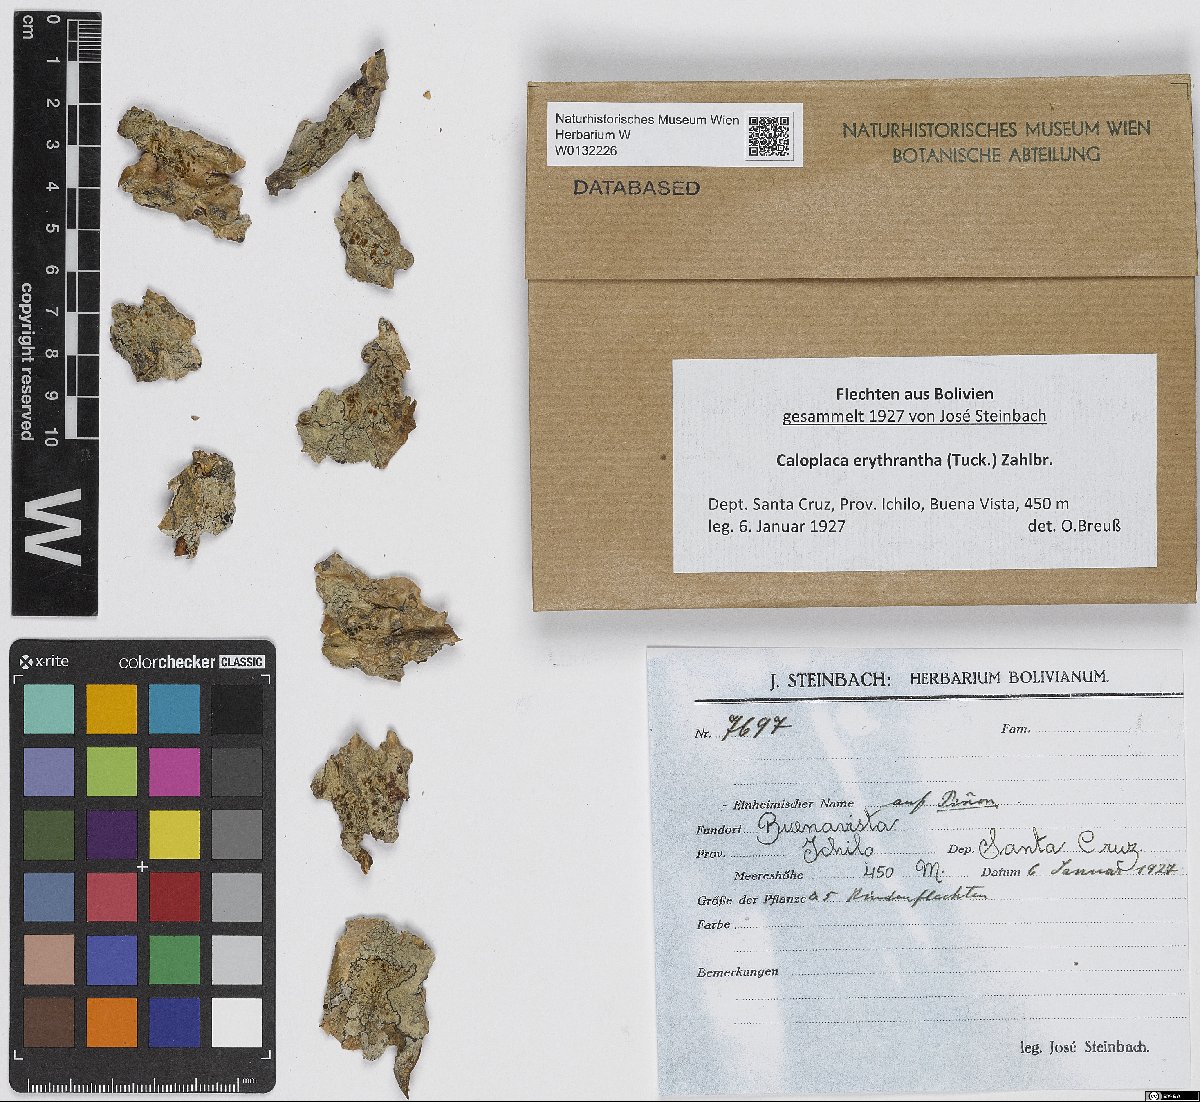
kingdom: Fungi
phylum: Ascomycota
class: Lecanoromycetes
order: Teloschistales
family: Teloschistaceae
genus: Caloplaca
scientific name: Caloplaca erythrantha
